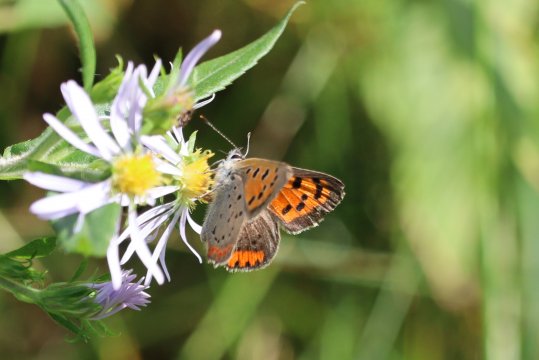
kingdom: Animalia
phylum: Arthropoda
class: Insecta
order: Lepidoptera
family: Lycaenidae
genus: Lycaena
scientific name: Lycaena phlaeas
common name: American Copper
